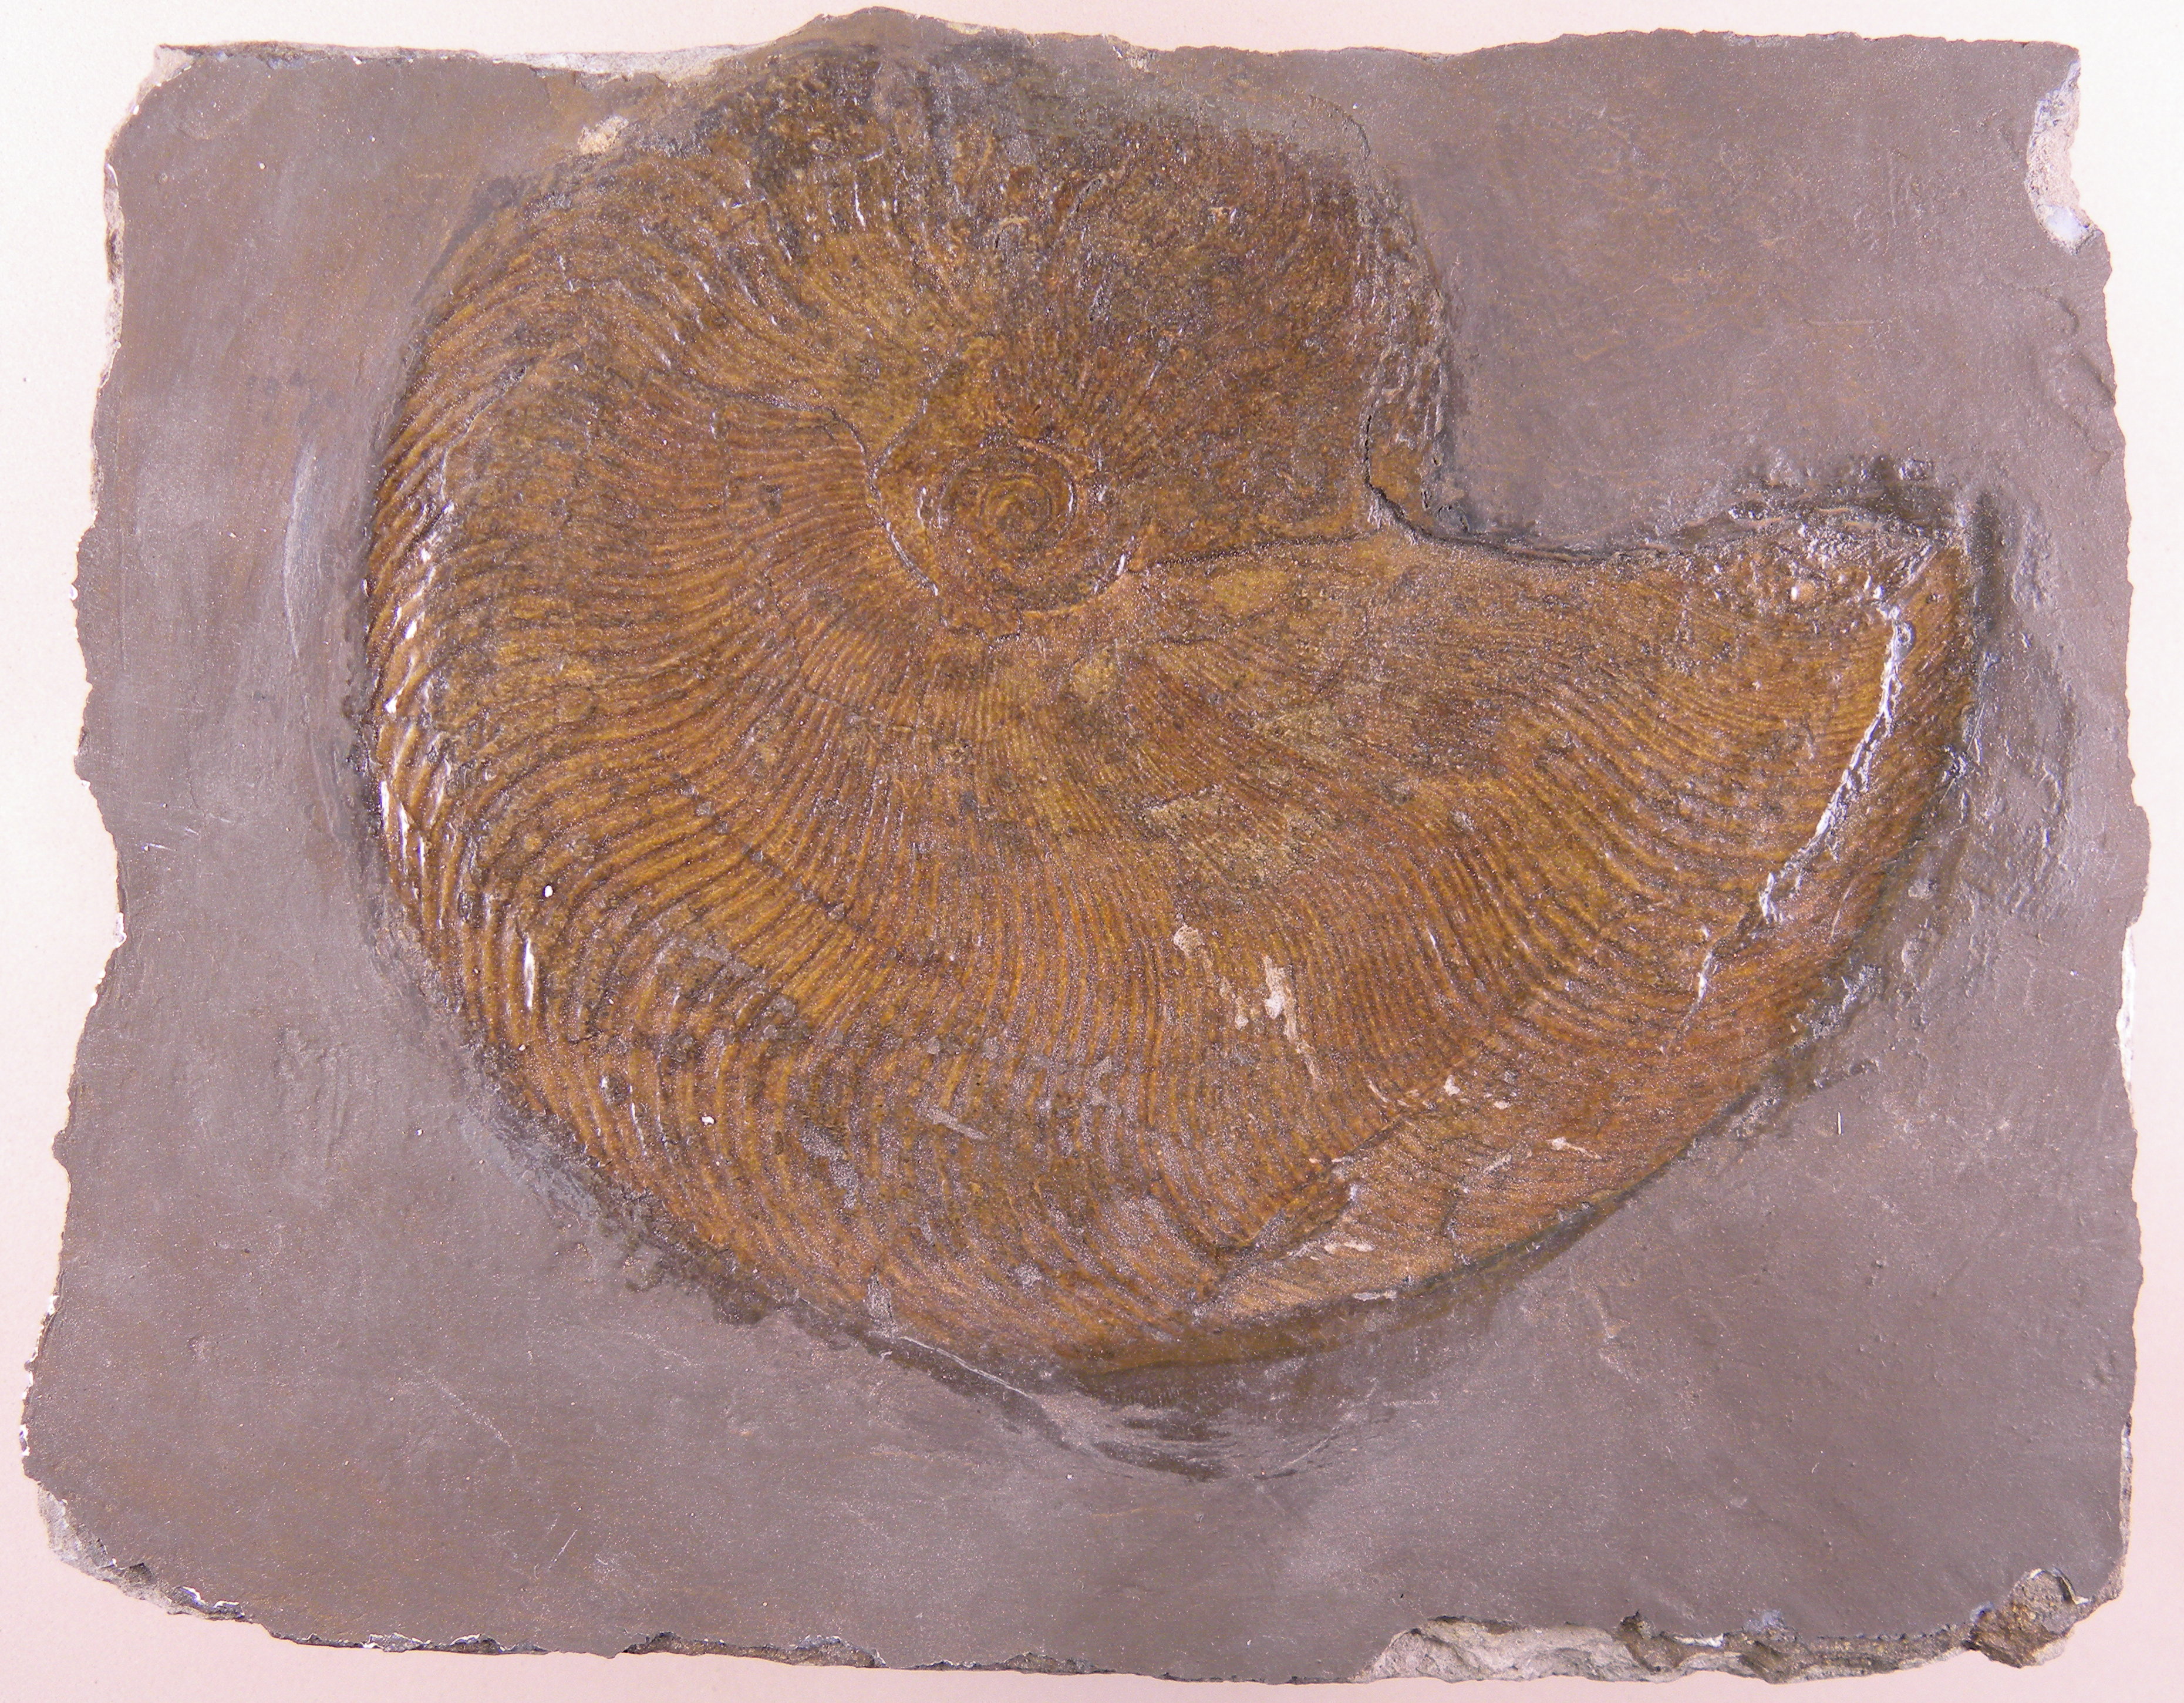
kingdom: Animalia
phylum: Mollusca
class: Cephalopoda
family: Hildoceratidae
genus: Harpoceras
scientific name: Harpoceras
